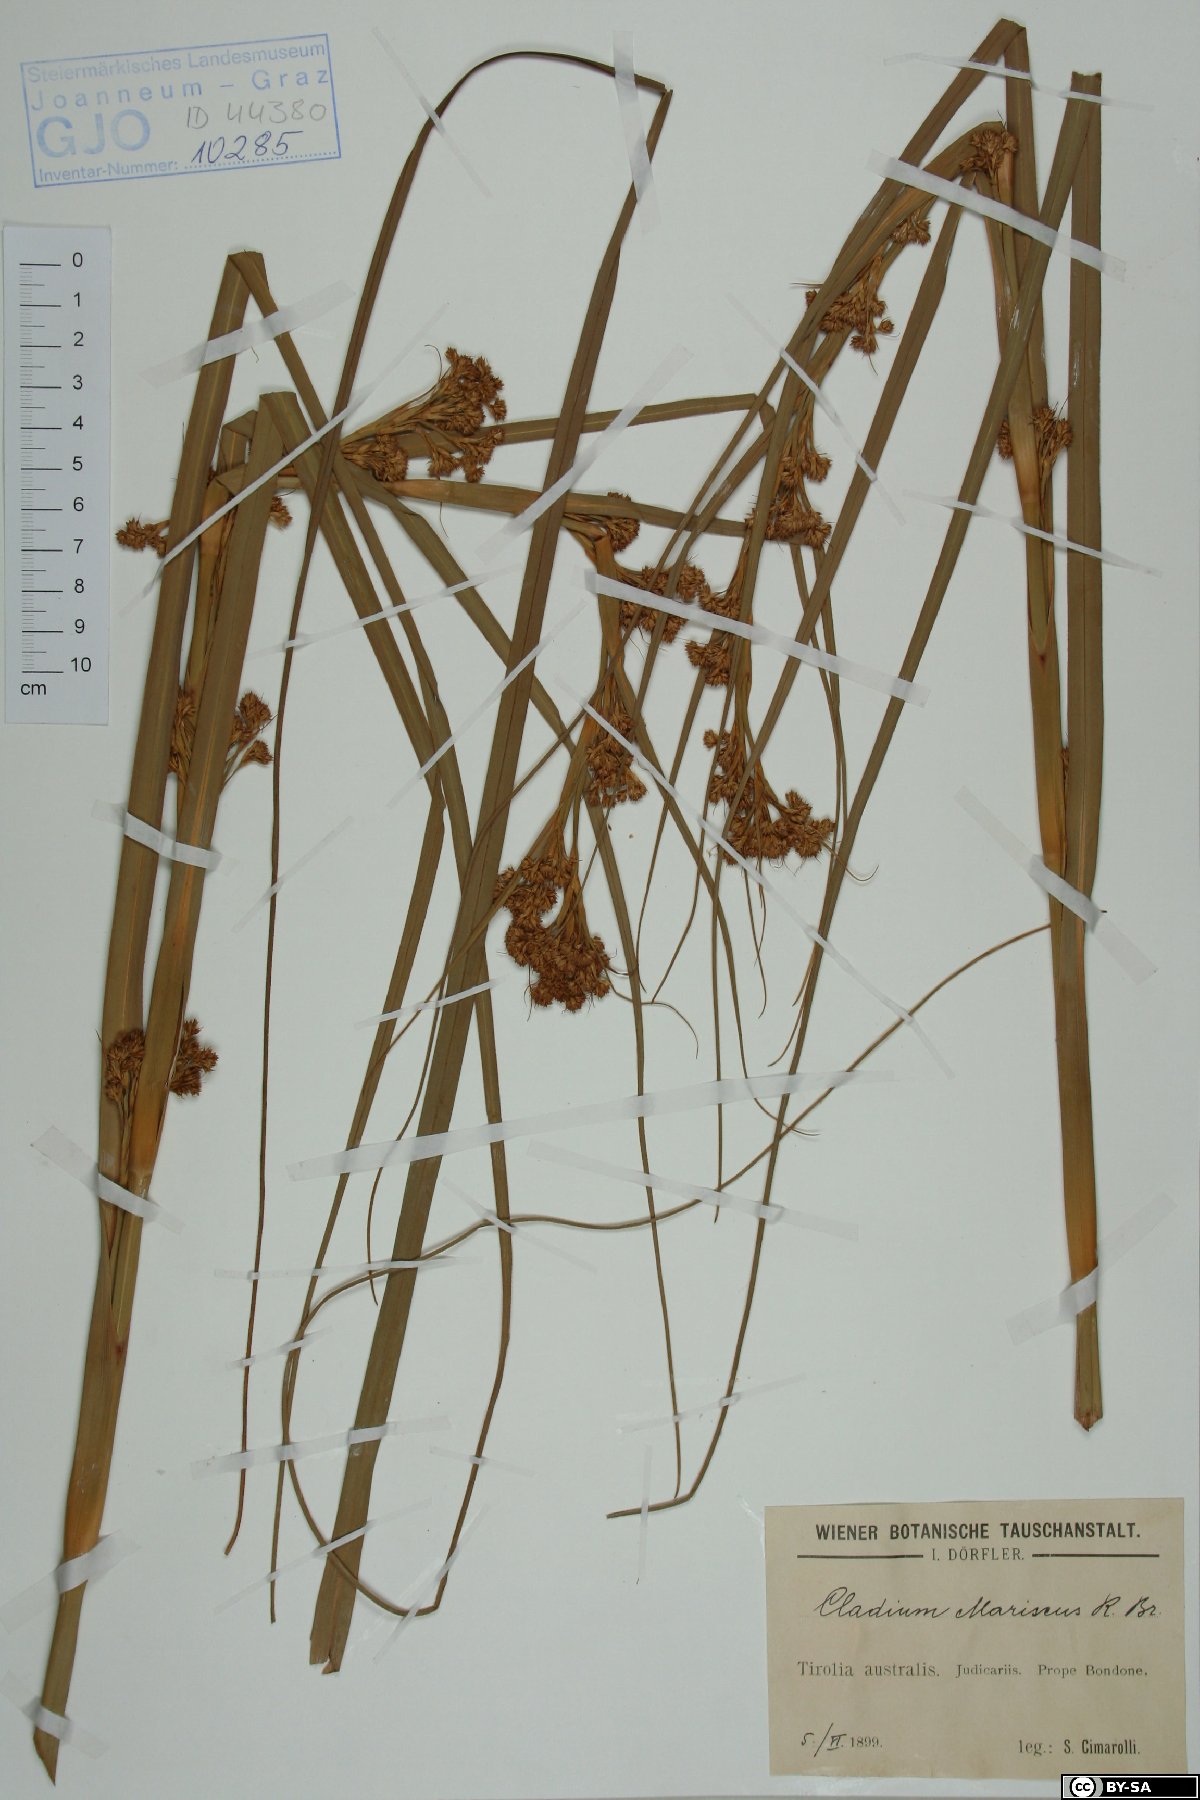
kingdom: Plantae
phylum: Tracheophyta
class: Liliopsida
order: Poales
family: Cyperaceae
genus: Cladium
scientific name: Cladium mariscus
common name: Great fen-sedge
